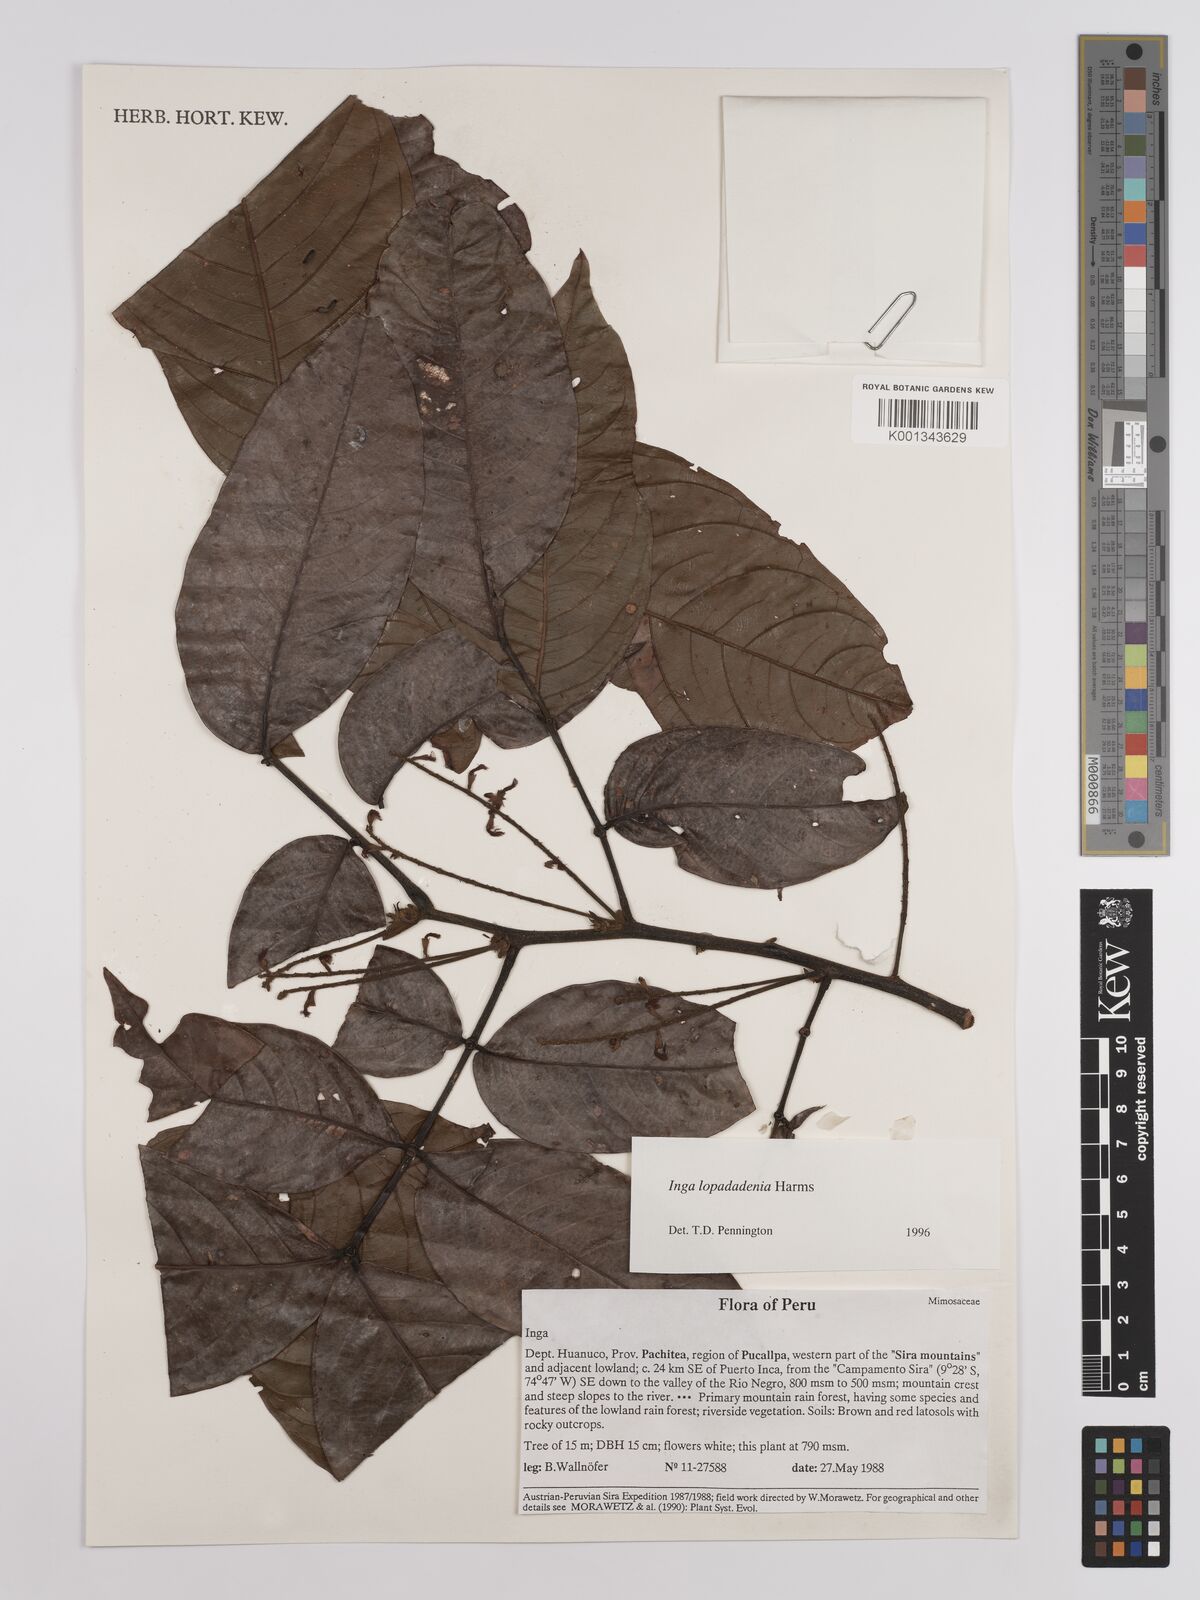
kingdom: Plantae
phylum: Tracheophyta
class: Magnoliopsida
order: Fabales
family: Fabaceae
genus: Inga
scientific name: Inga lopadadenia
